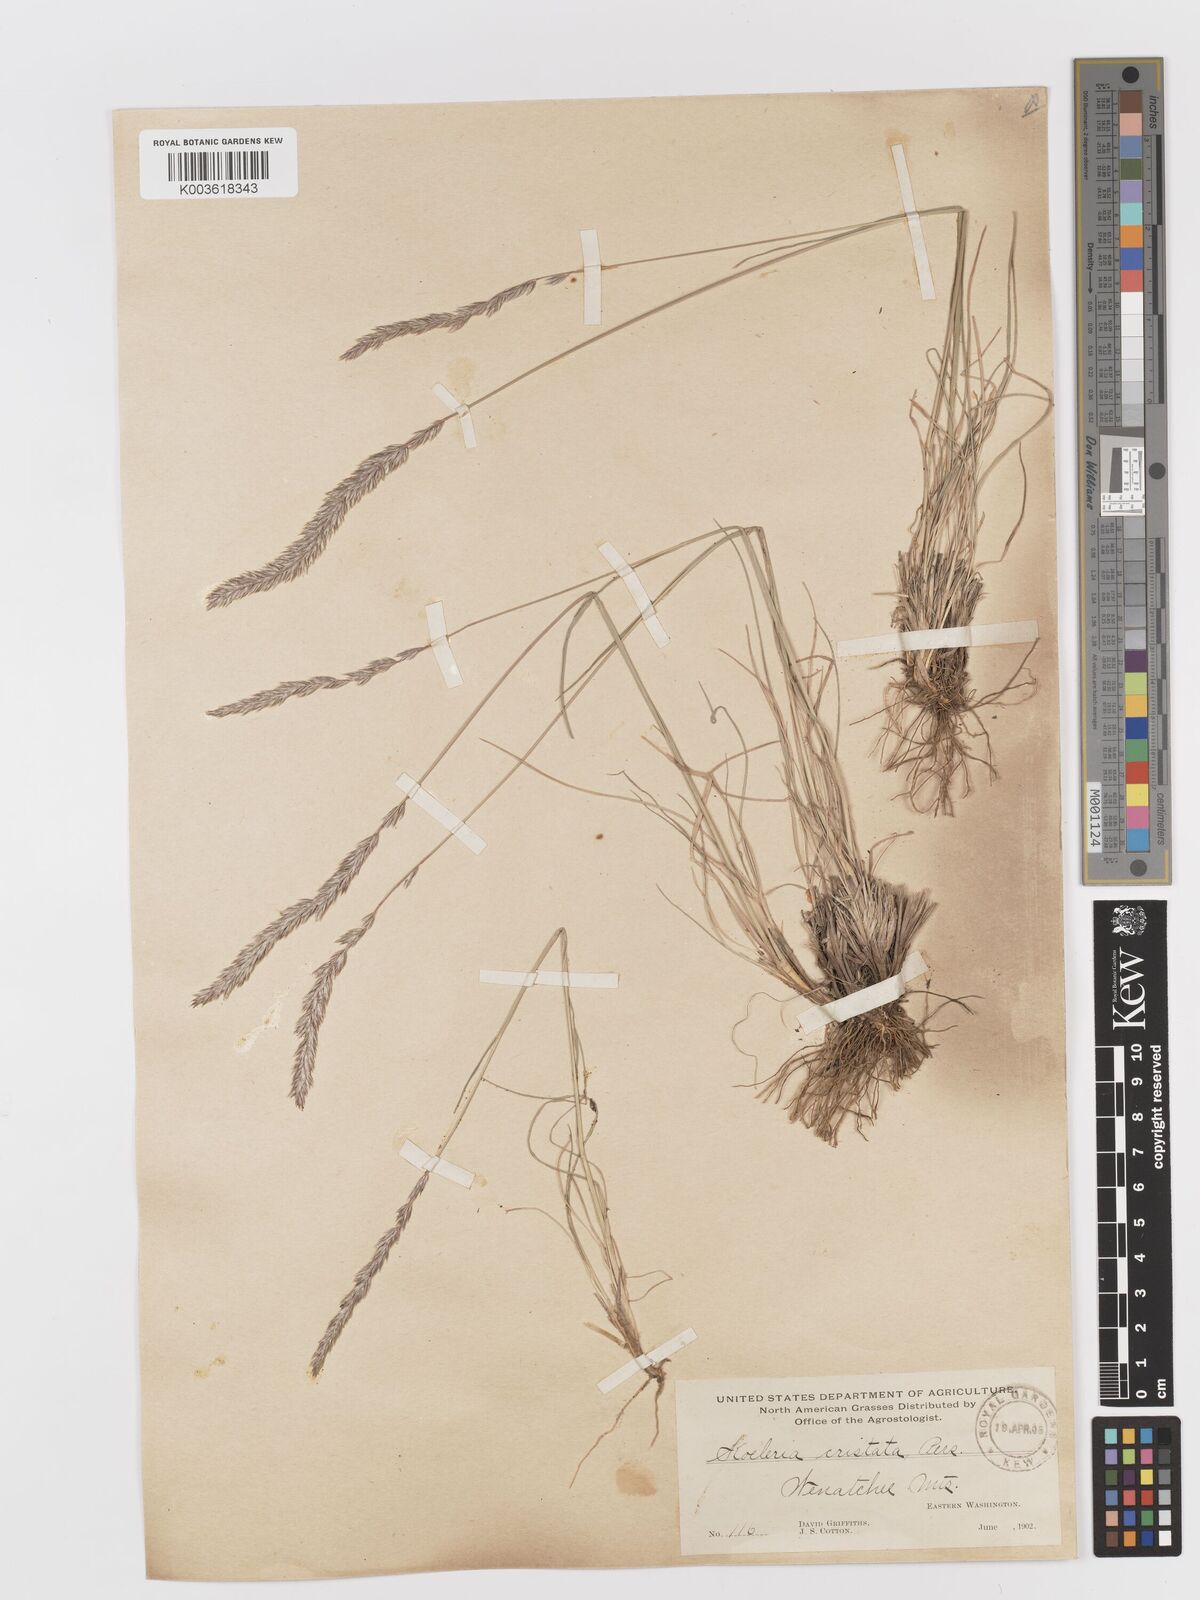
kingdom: Plantae
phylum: Tracheophyta
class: Liliopsida
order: Poales
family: Poaceae
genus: Koeleria
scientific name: Koeleria
